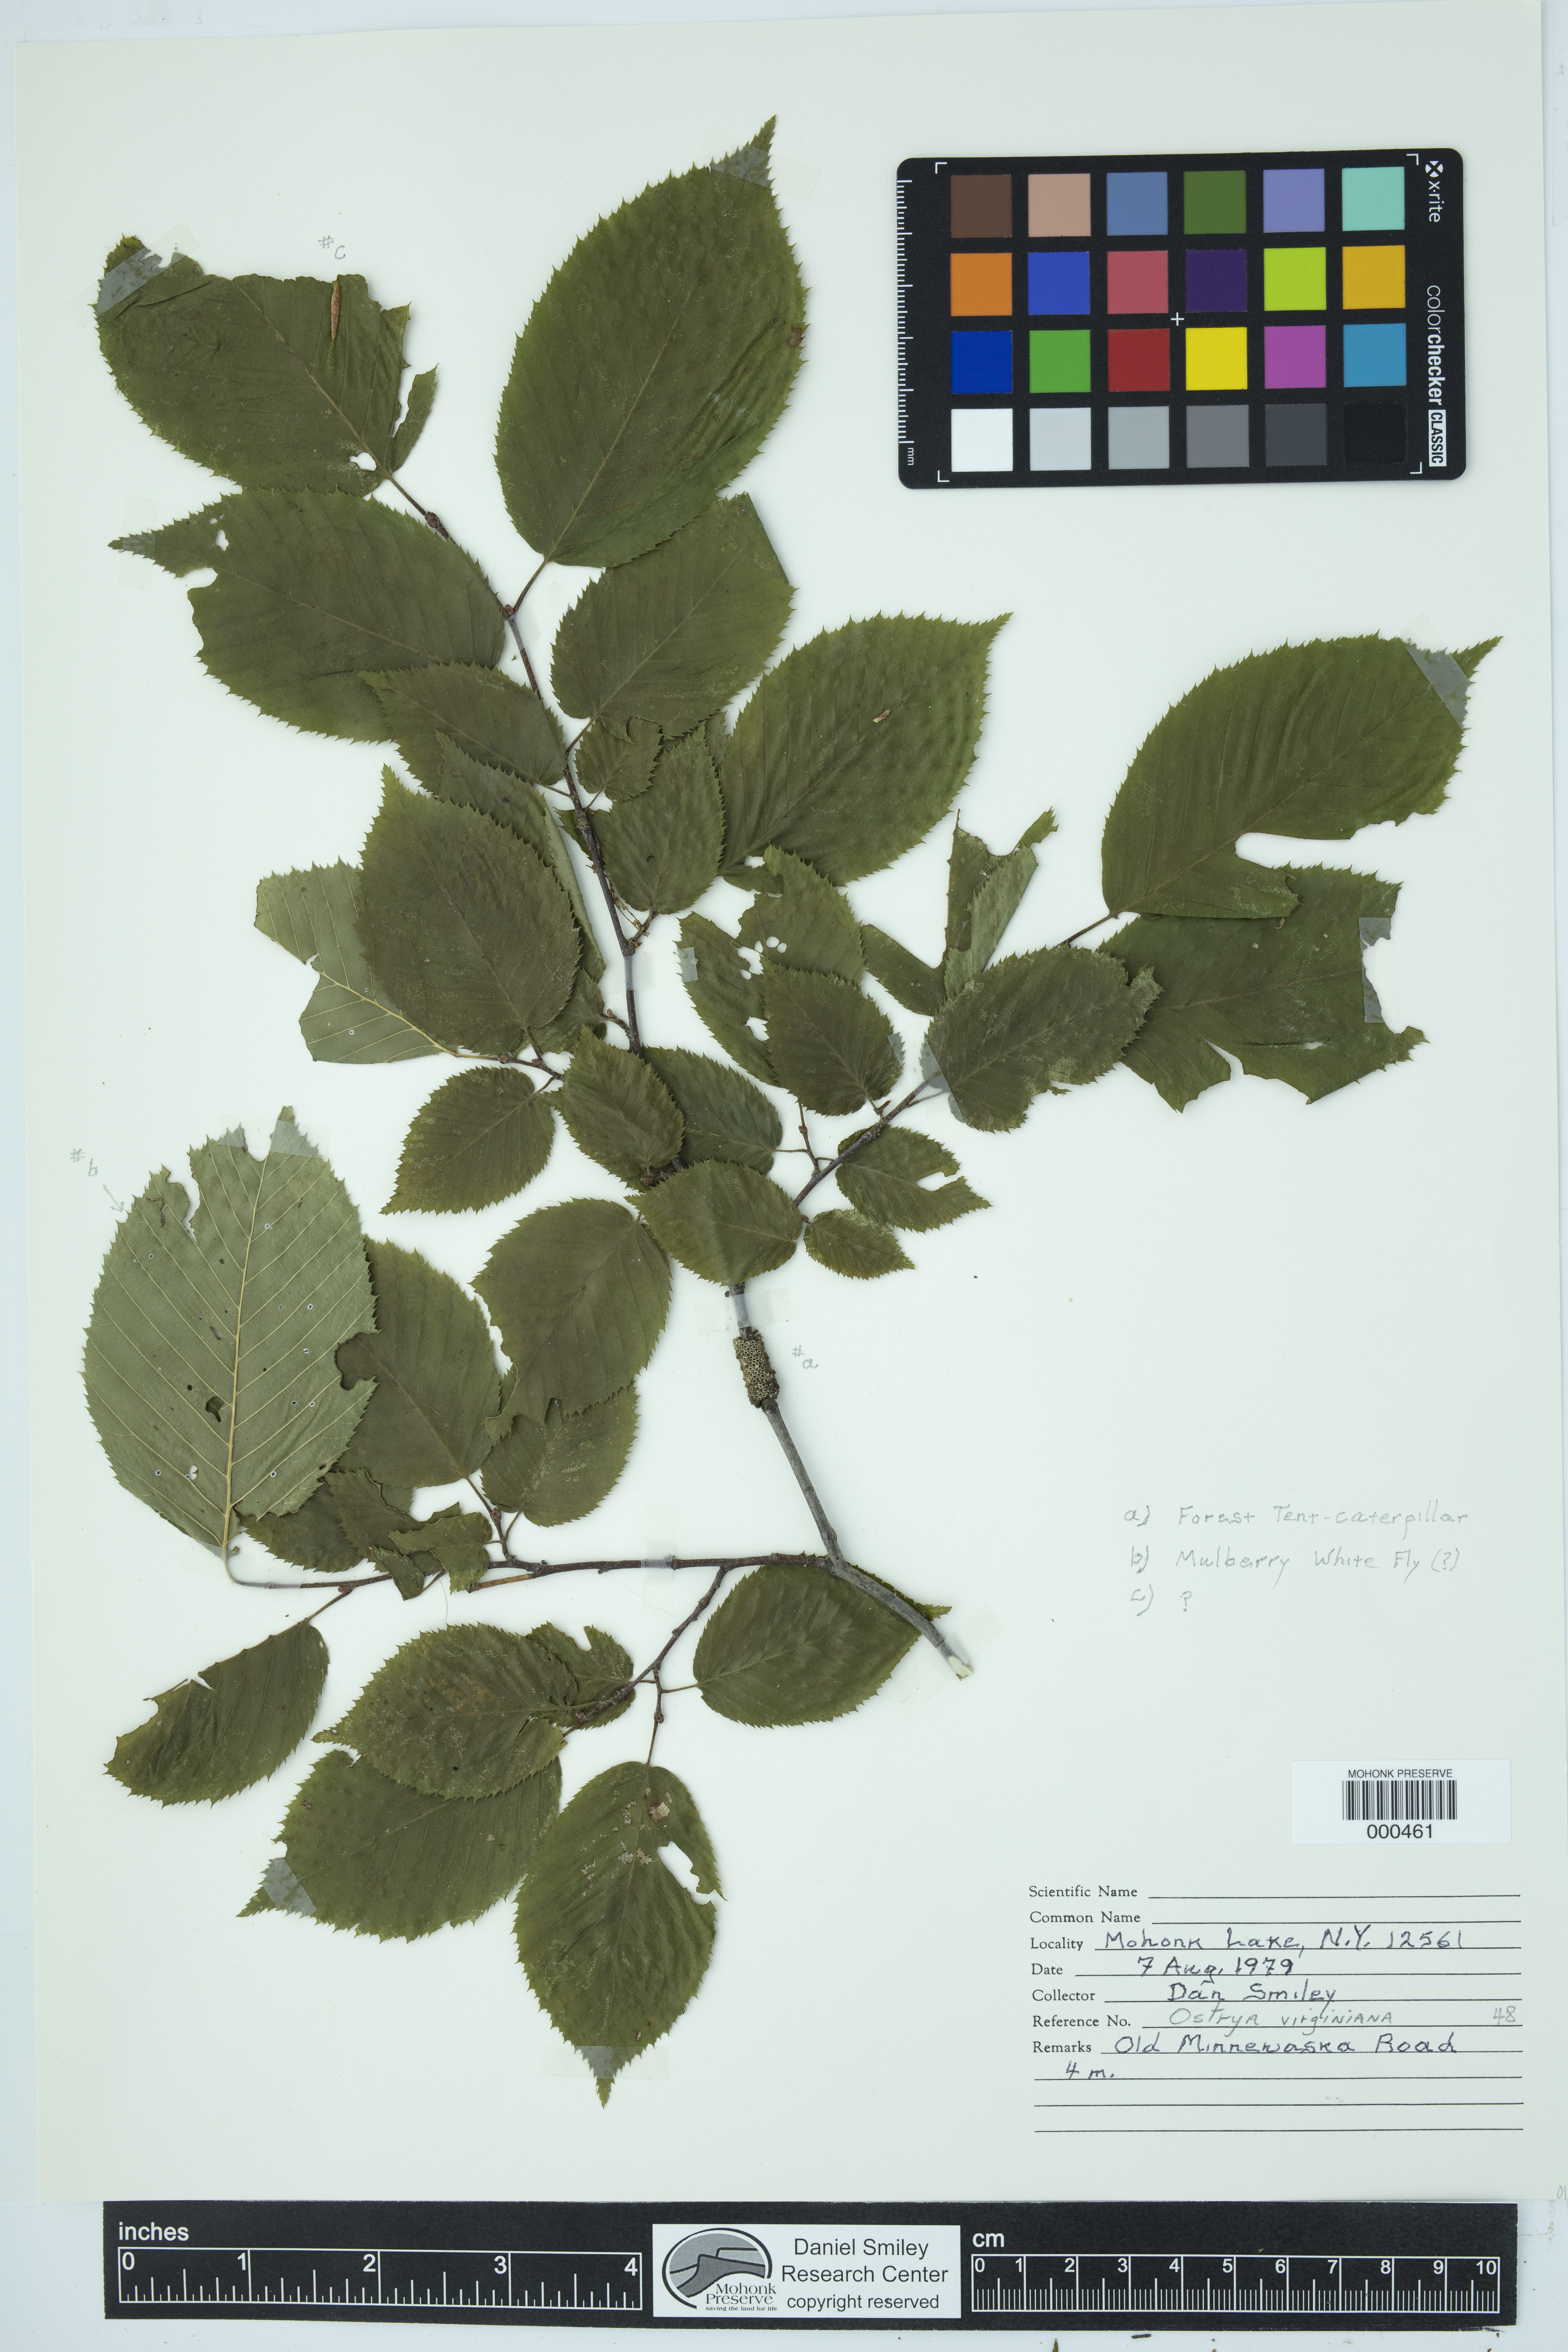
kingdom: Plantae
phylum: Tracheophyta
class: Magnoliopsida
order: Fagales
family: Betulaceae
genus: Ostrya
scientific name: Ostrya virginiana
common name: Ironwood
